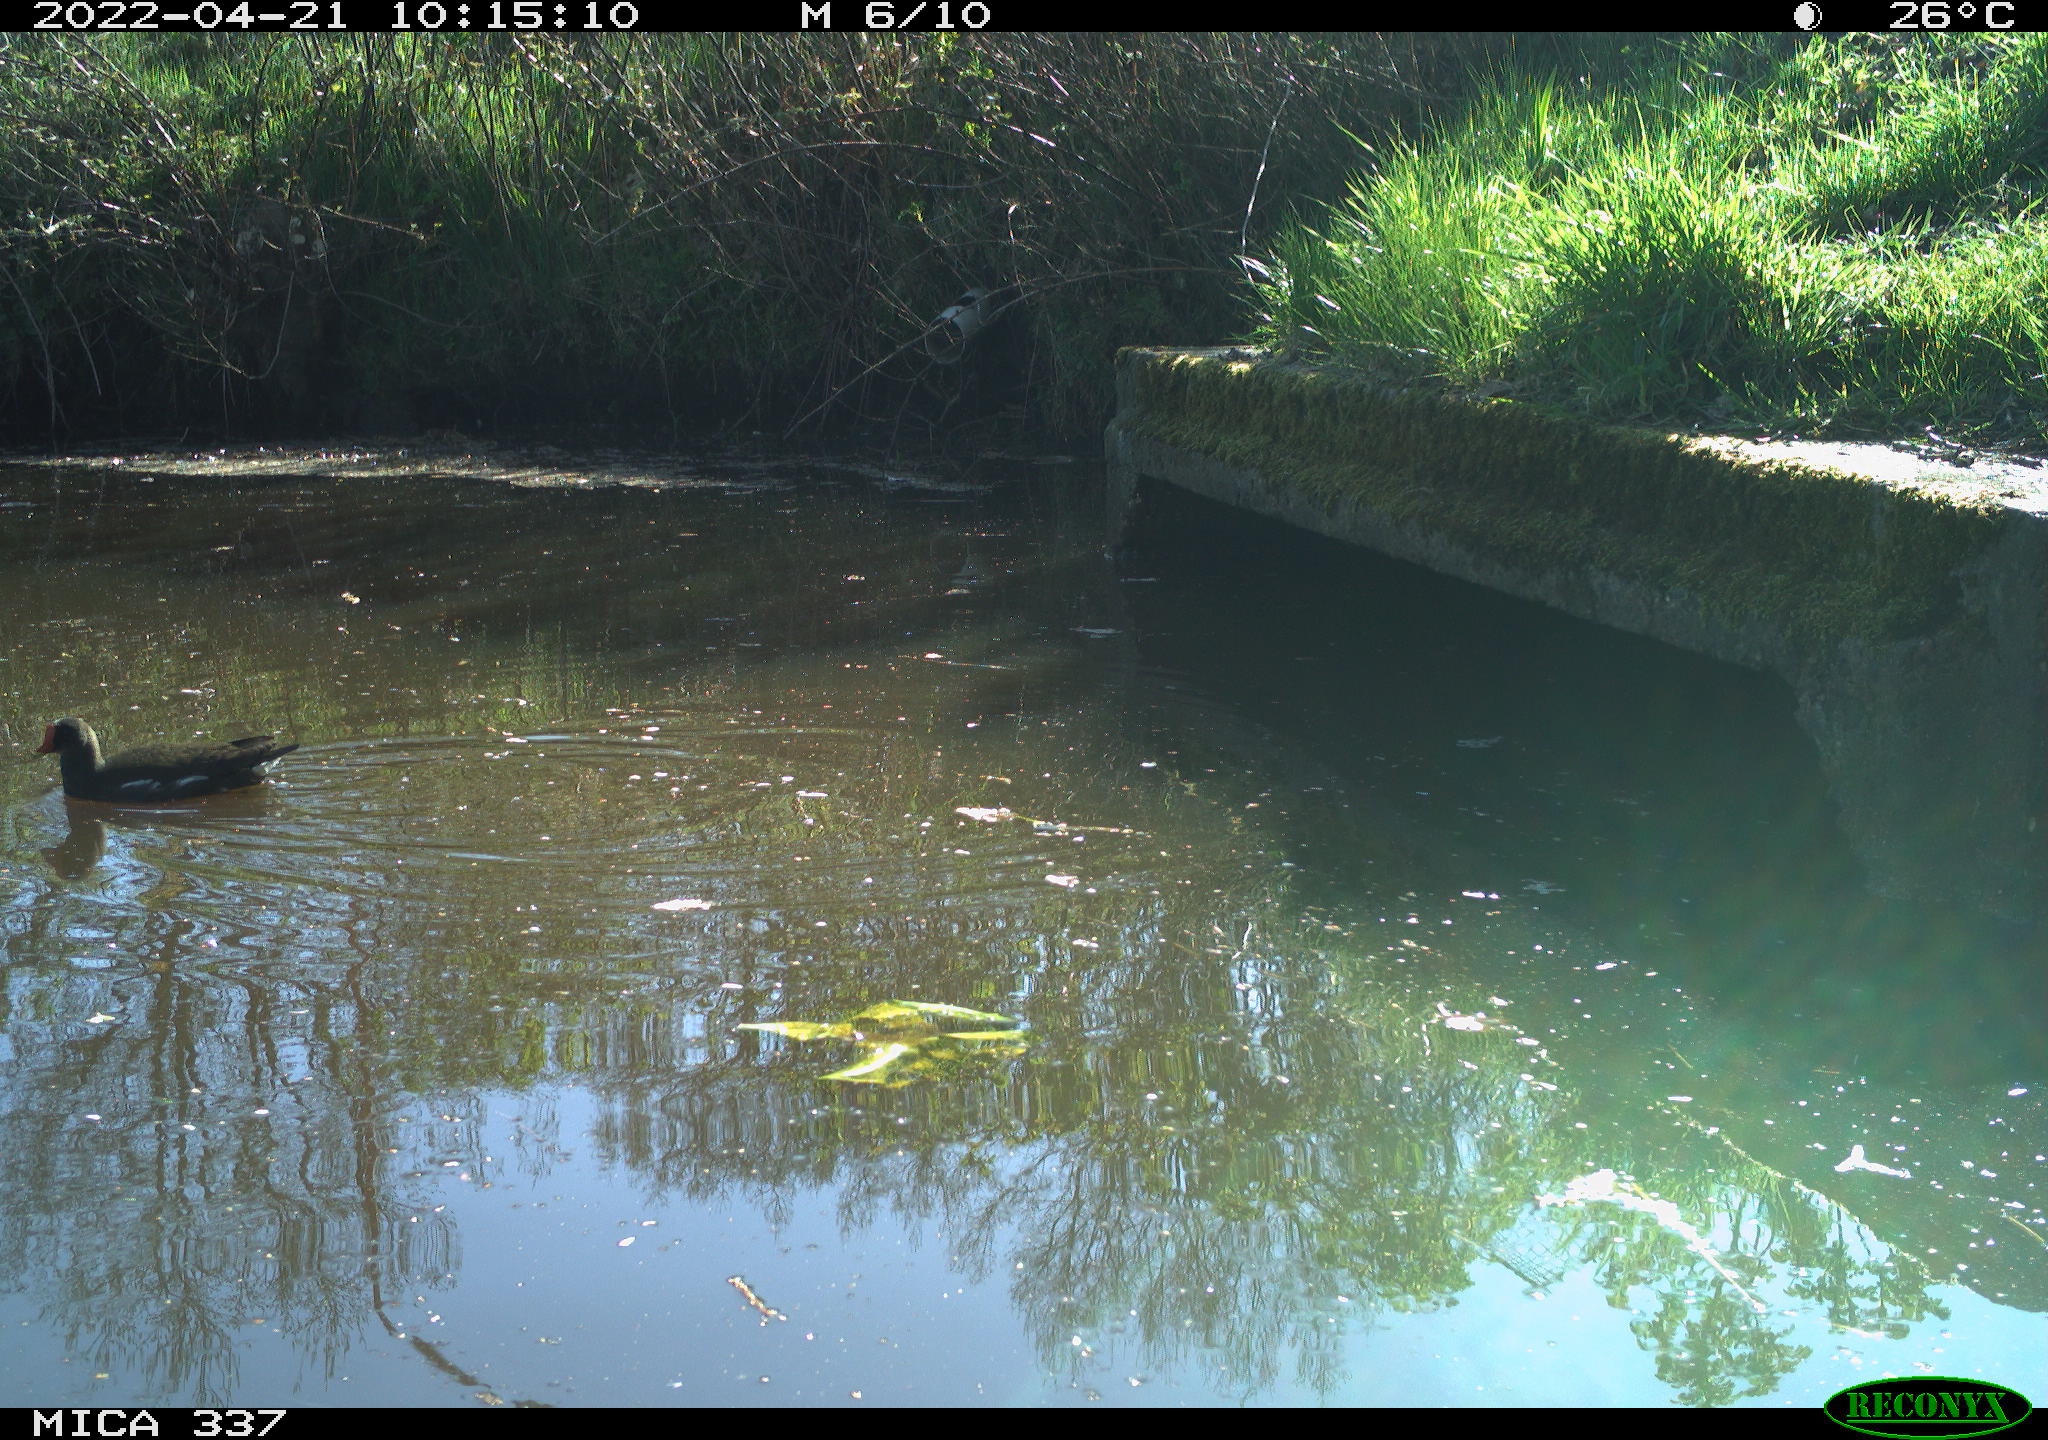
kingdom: Animalia
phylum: Chordata
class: Aves
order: Gruiformes
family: Rallidae
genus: Gallinula
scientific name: Gallinula chloropus
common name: Common moorhen
